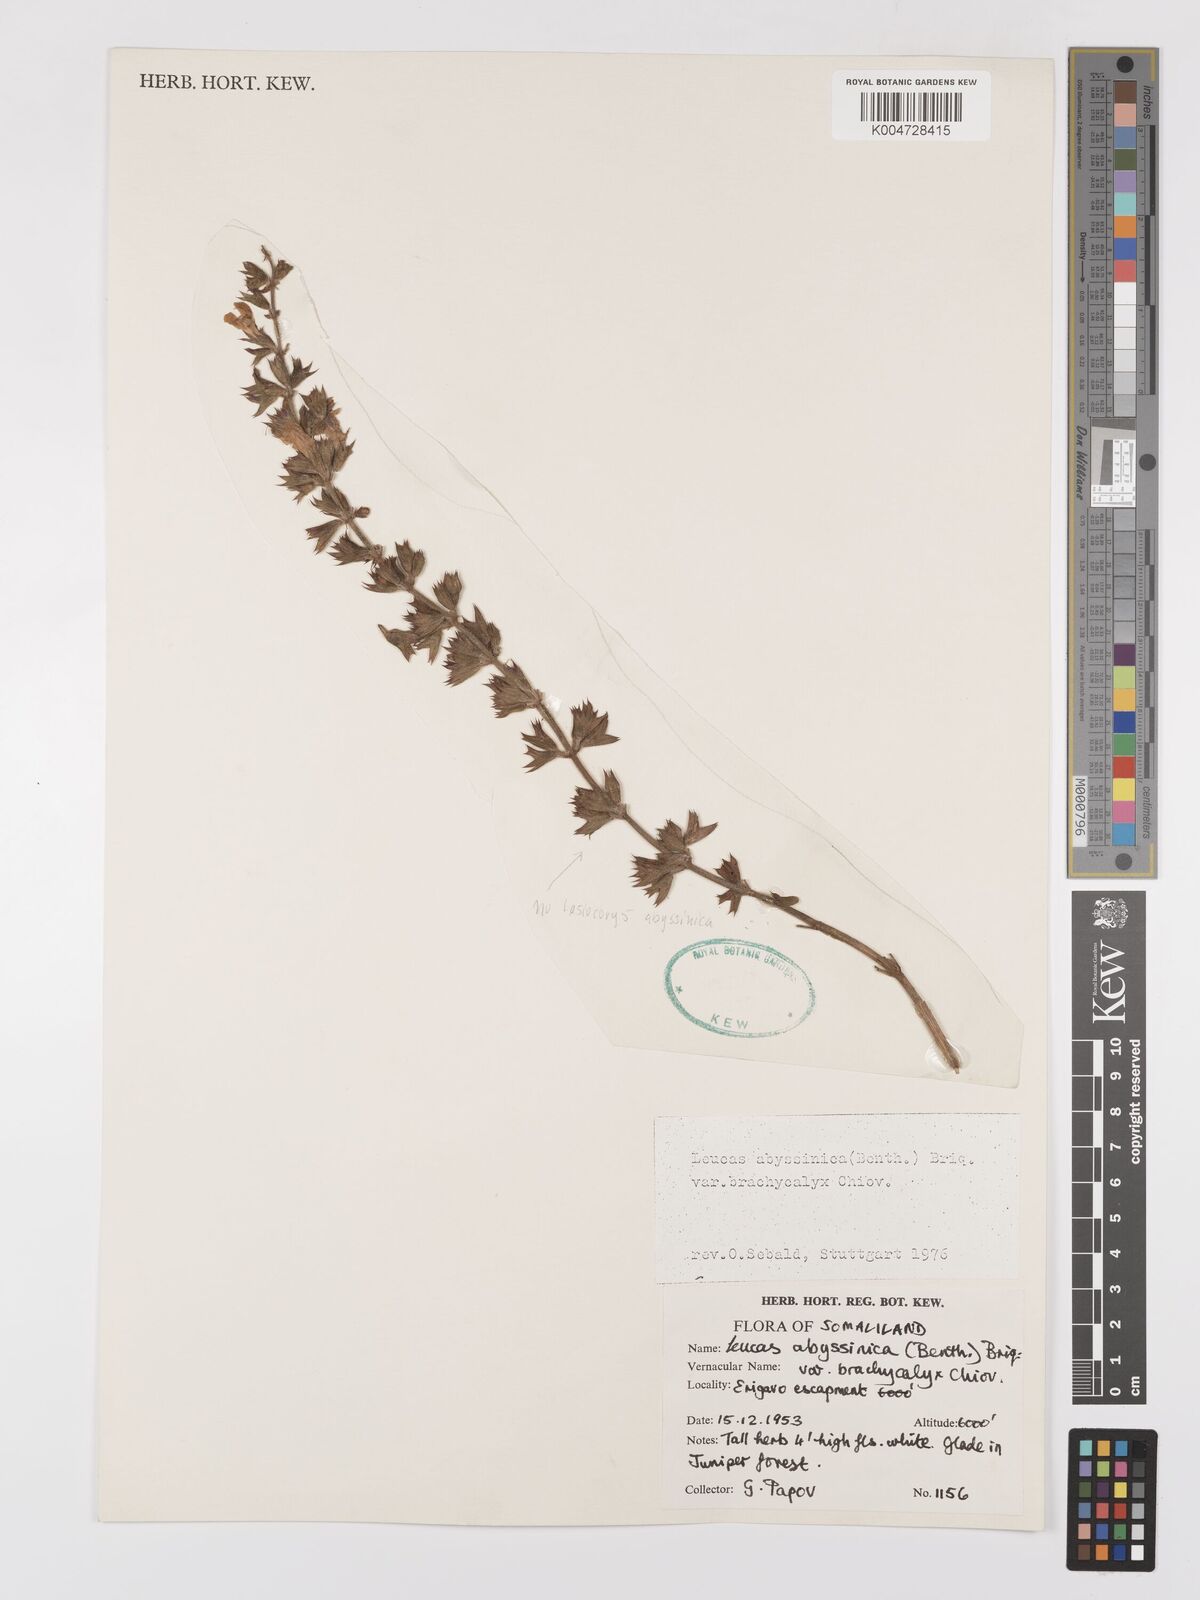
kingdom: Plantae
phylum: Tracheophyta
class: Magnoliopsida
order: Lamiales
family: Lamiaceae
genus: Salvia
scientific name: Salvia somalensis
